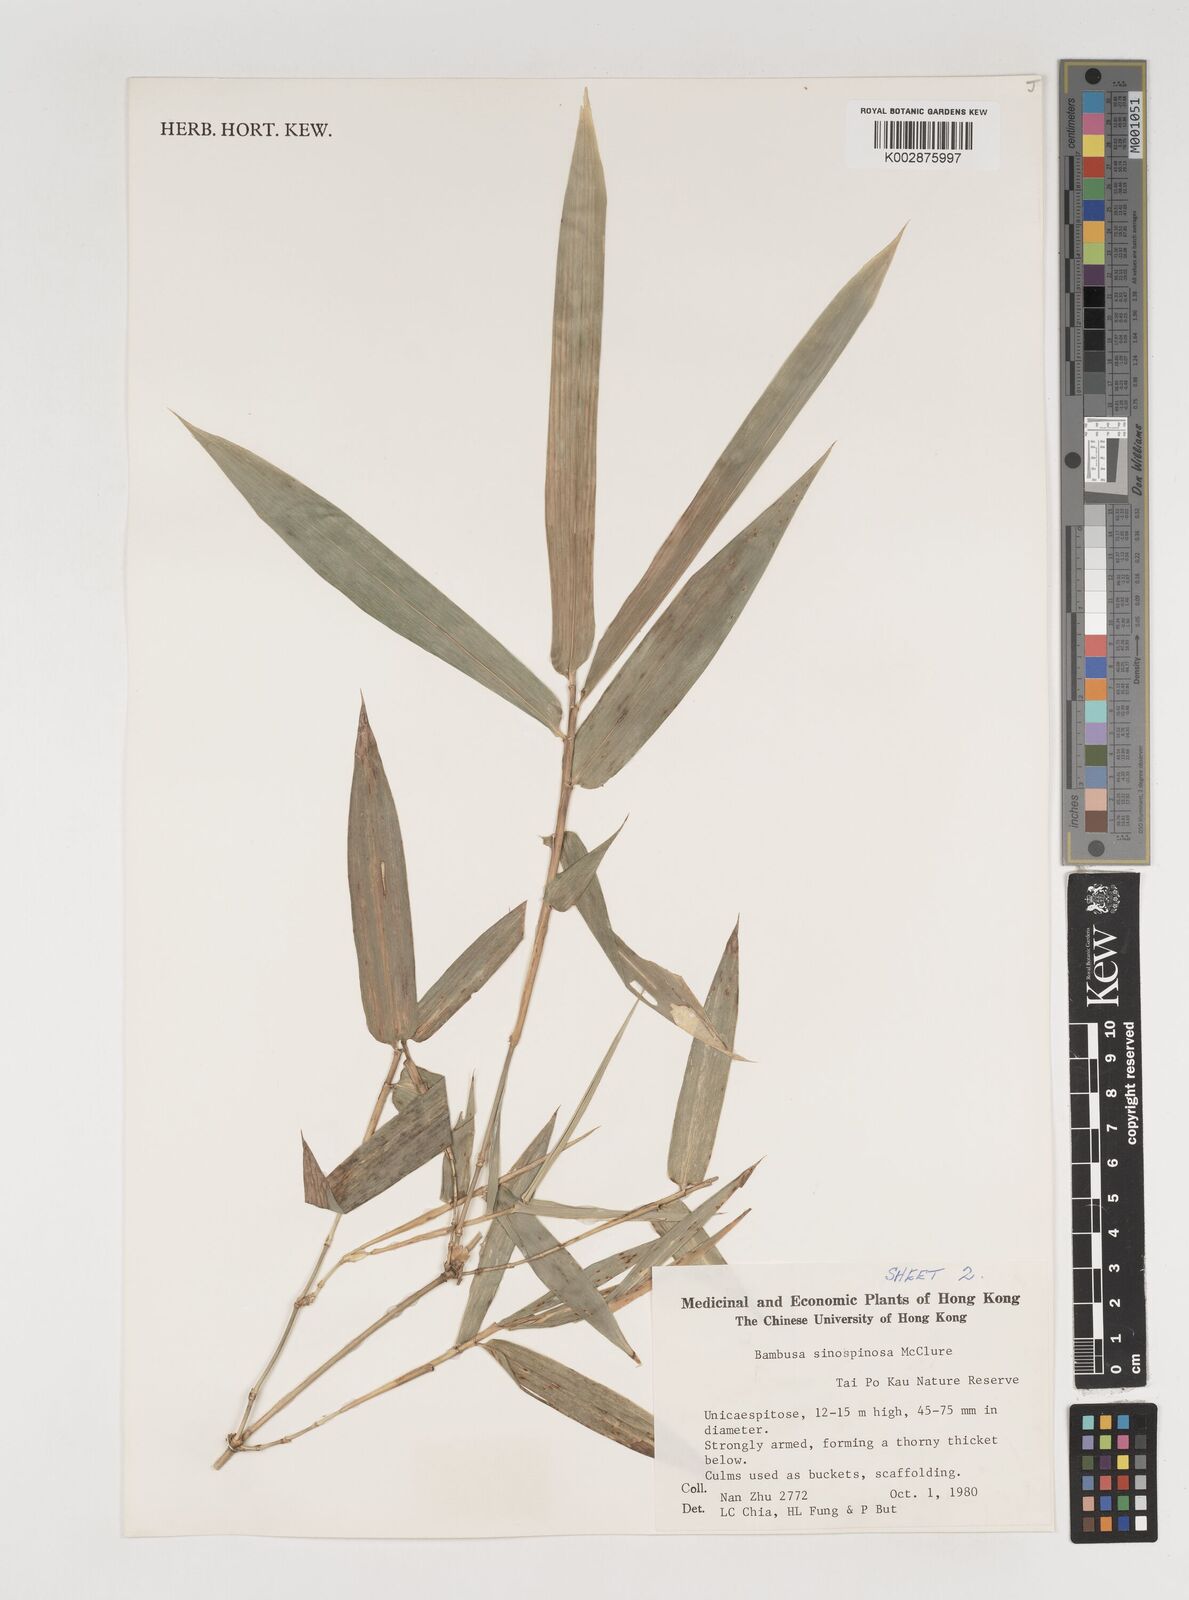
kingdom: Plantae
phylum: Tracheophyta
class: Liliopsida
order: Poales
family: Poaceae
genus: Bambusa
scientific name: Bambusa sinospinosa
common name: Spiny bamboo
